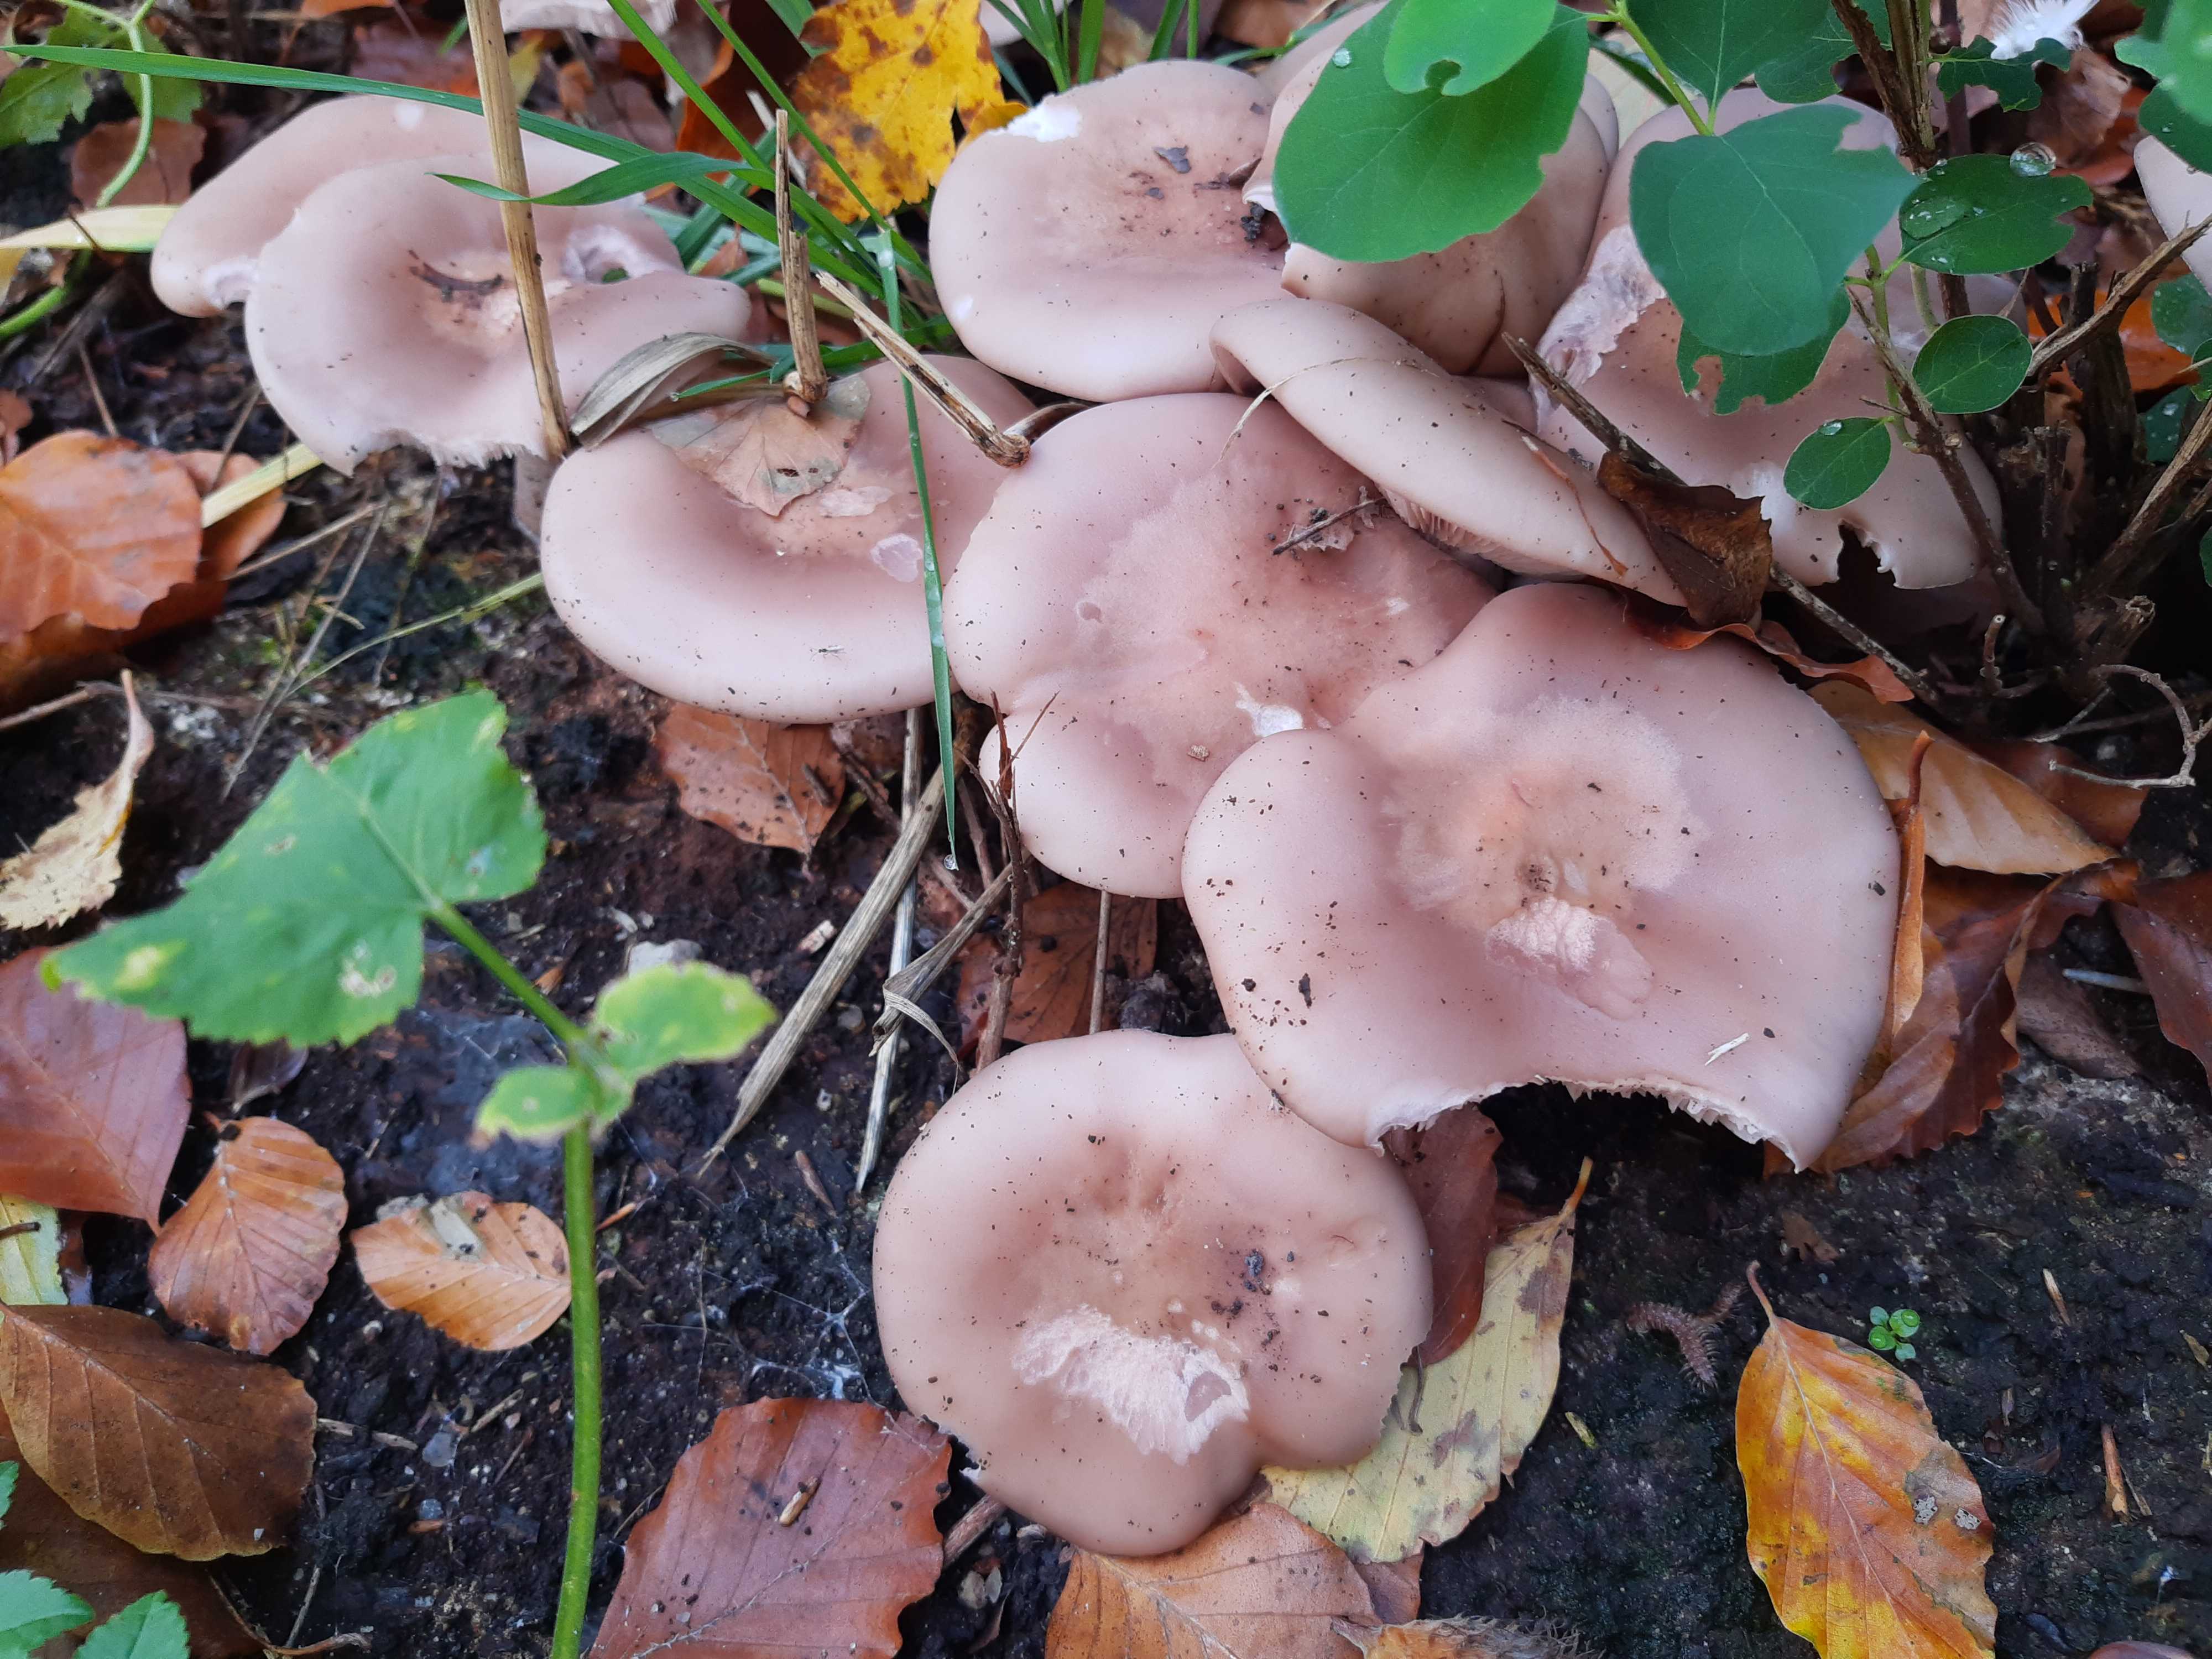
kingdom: Fungi
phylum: Basidiomycota
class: Agaricomycetes
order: Agaricales
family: Tricholomataceae
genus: Lepista
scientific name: Lepista nuda
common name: violet hekseringshat
